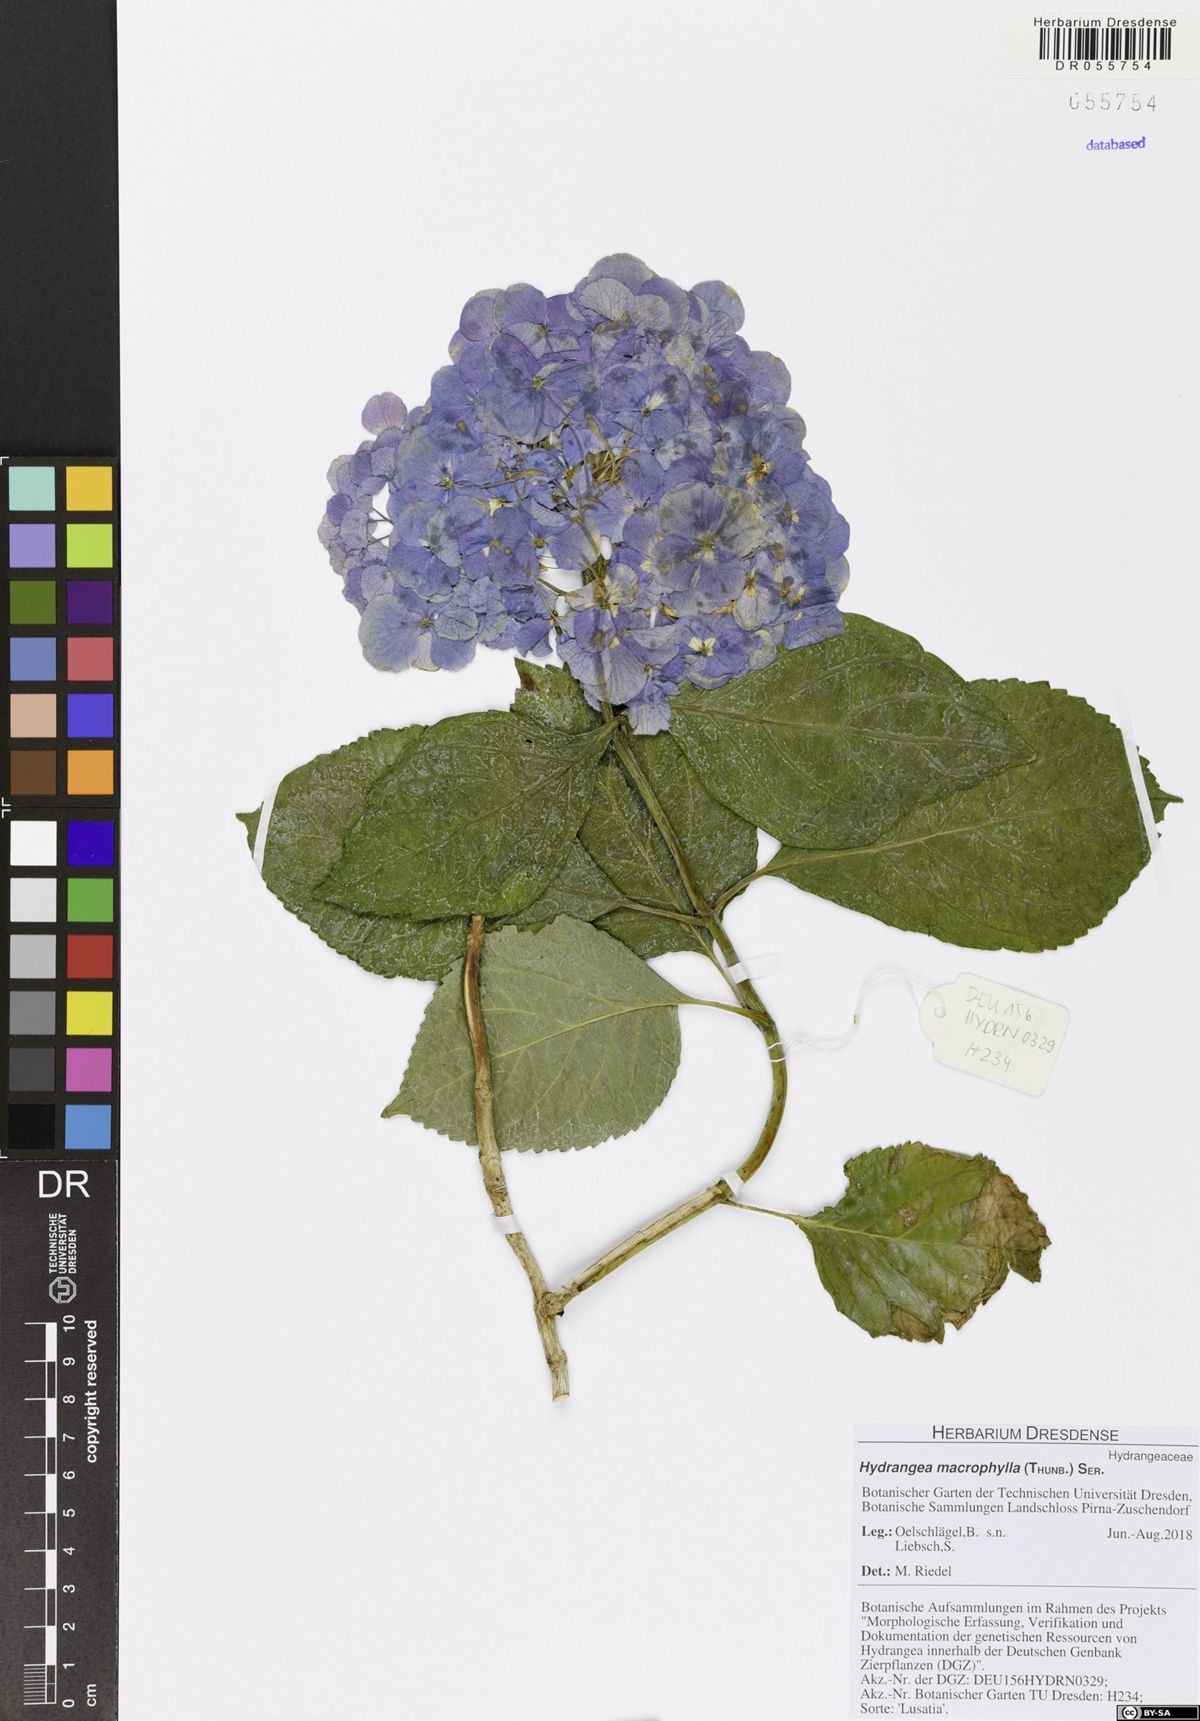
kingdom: Plantae
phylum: Tracheophyta
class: Magnoliopsida
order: Cornales
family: Hydrangeaceae
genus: Hydrangea
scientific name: Hydrangea macrophylla
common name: Hydrangea
